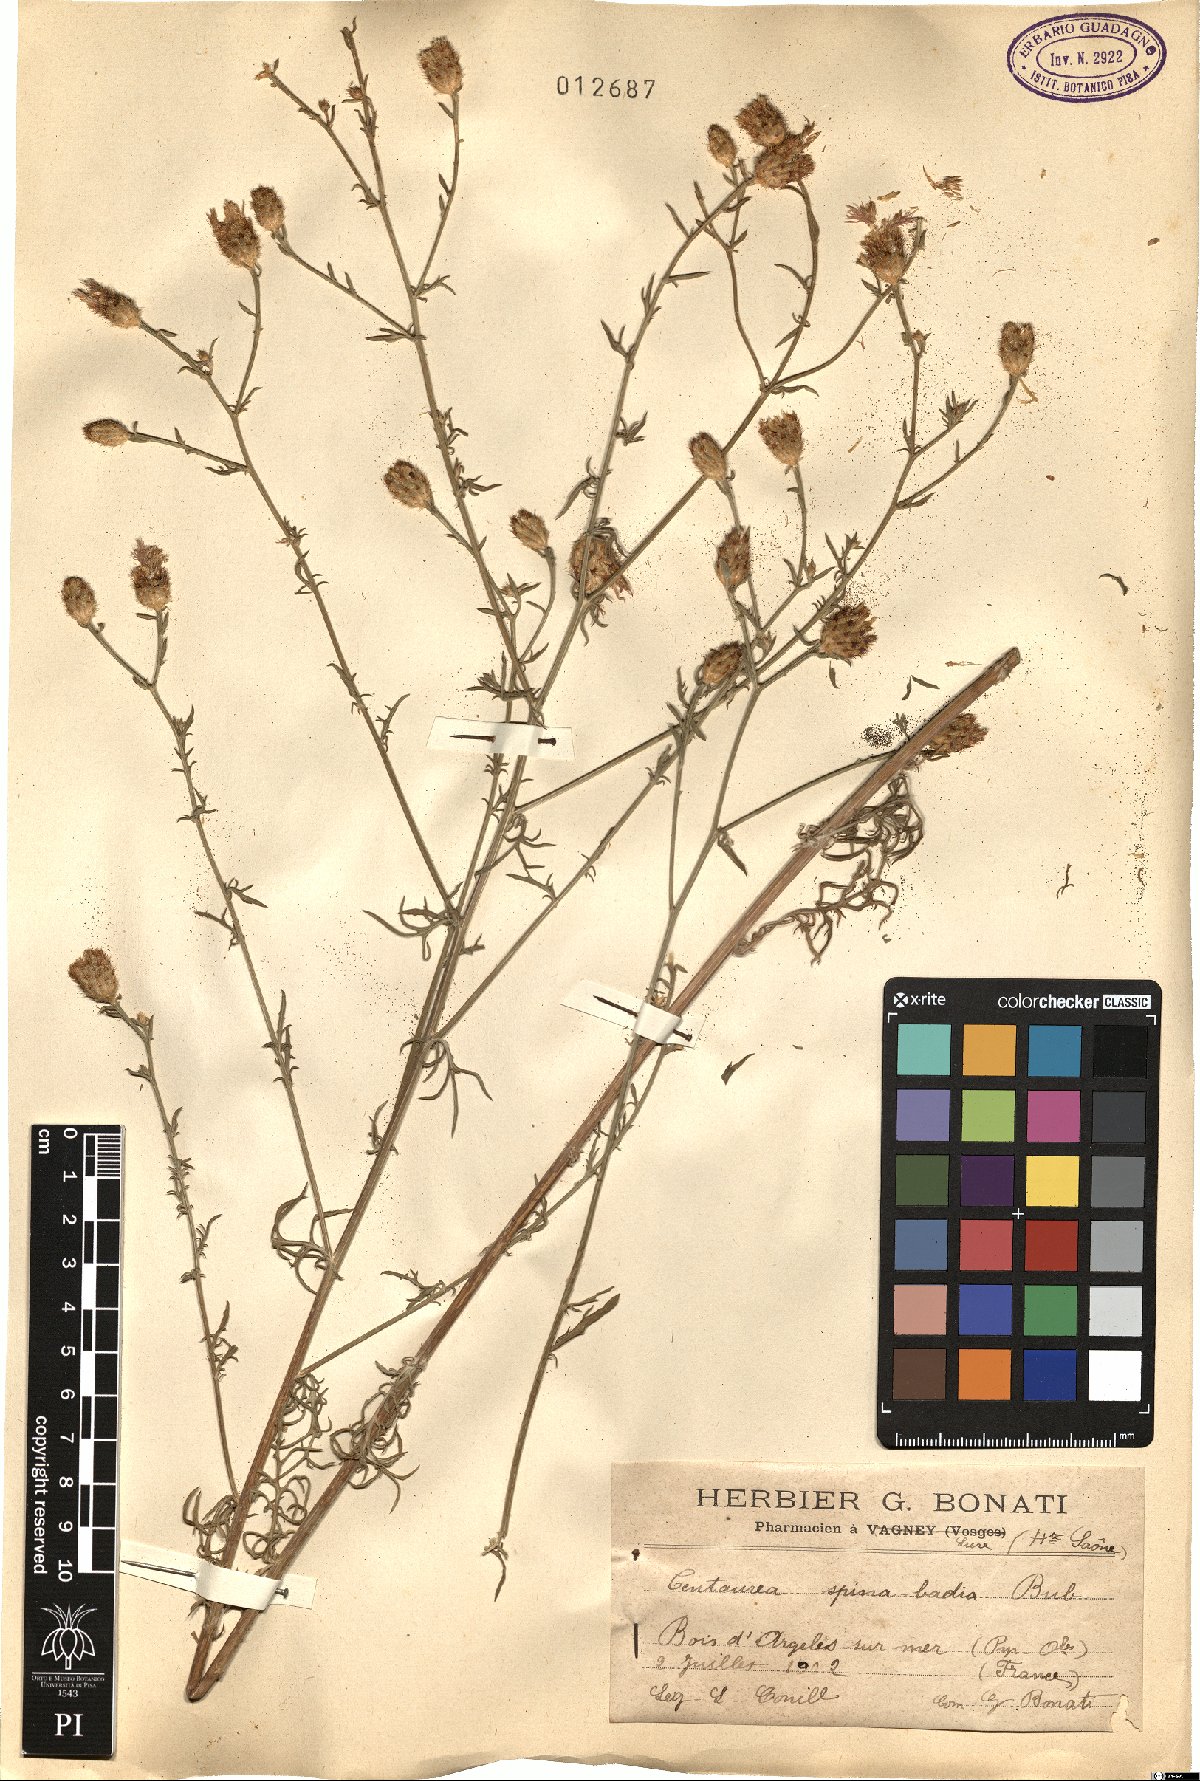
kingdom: Plantae
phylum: Tracheophyta
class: Magnoliopsida
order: Asterales
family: Asteraceae
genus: Centaurea
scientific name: Centaurea hanryi
